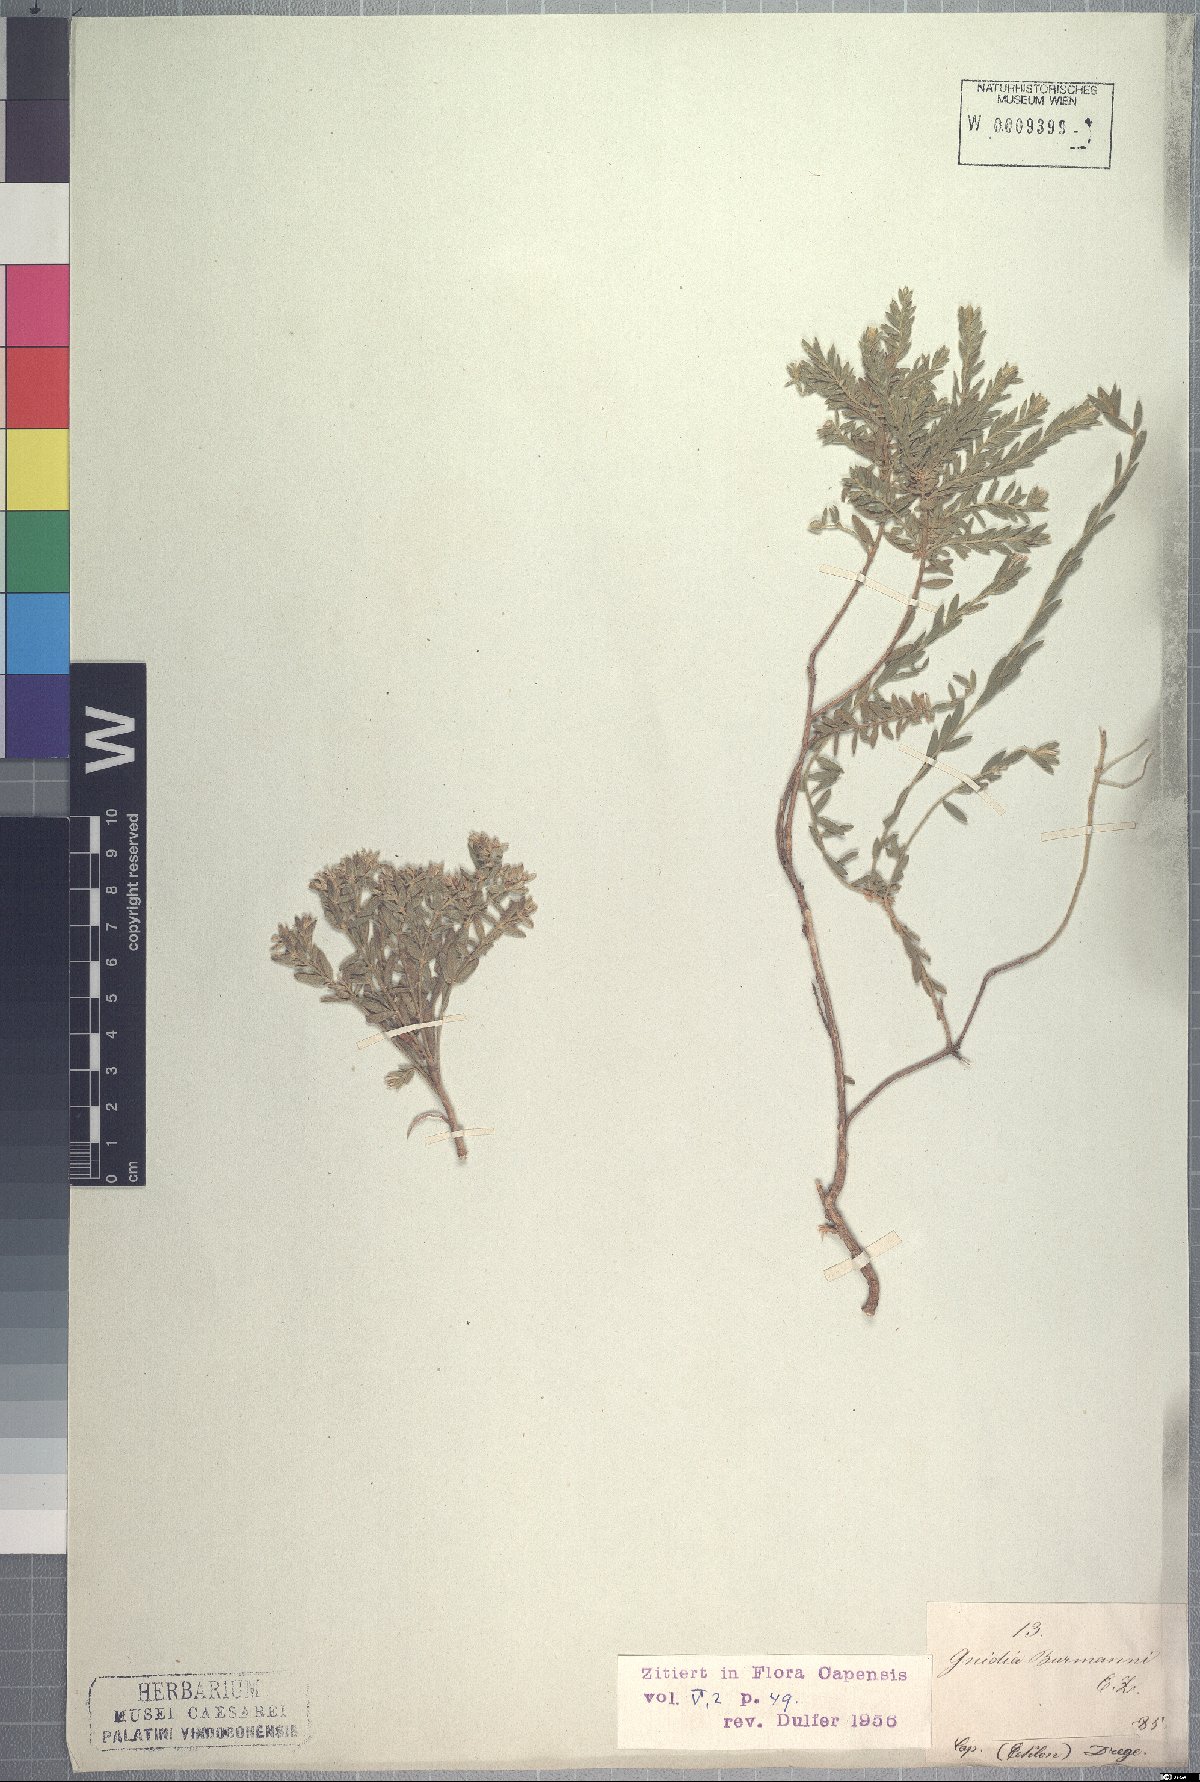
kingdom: Plantae
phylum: Tracheophyta
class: Magnoliopsida
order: Malvales
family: Thymelaeaceae
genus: Gnidia
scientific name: Gnidia burmanni
